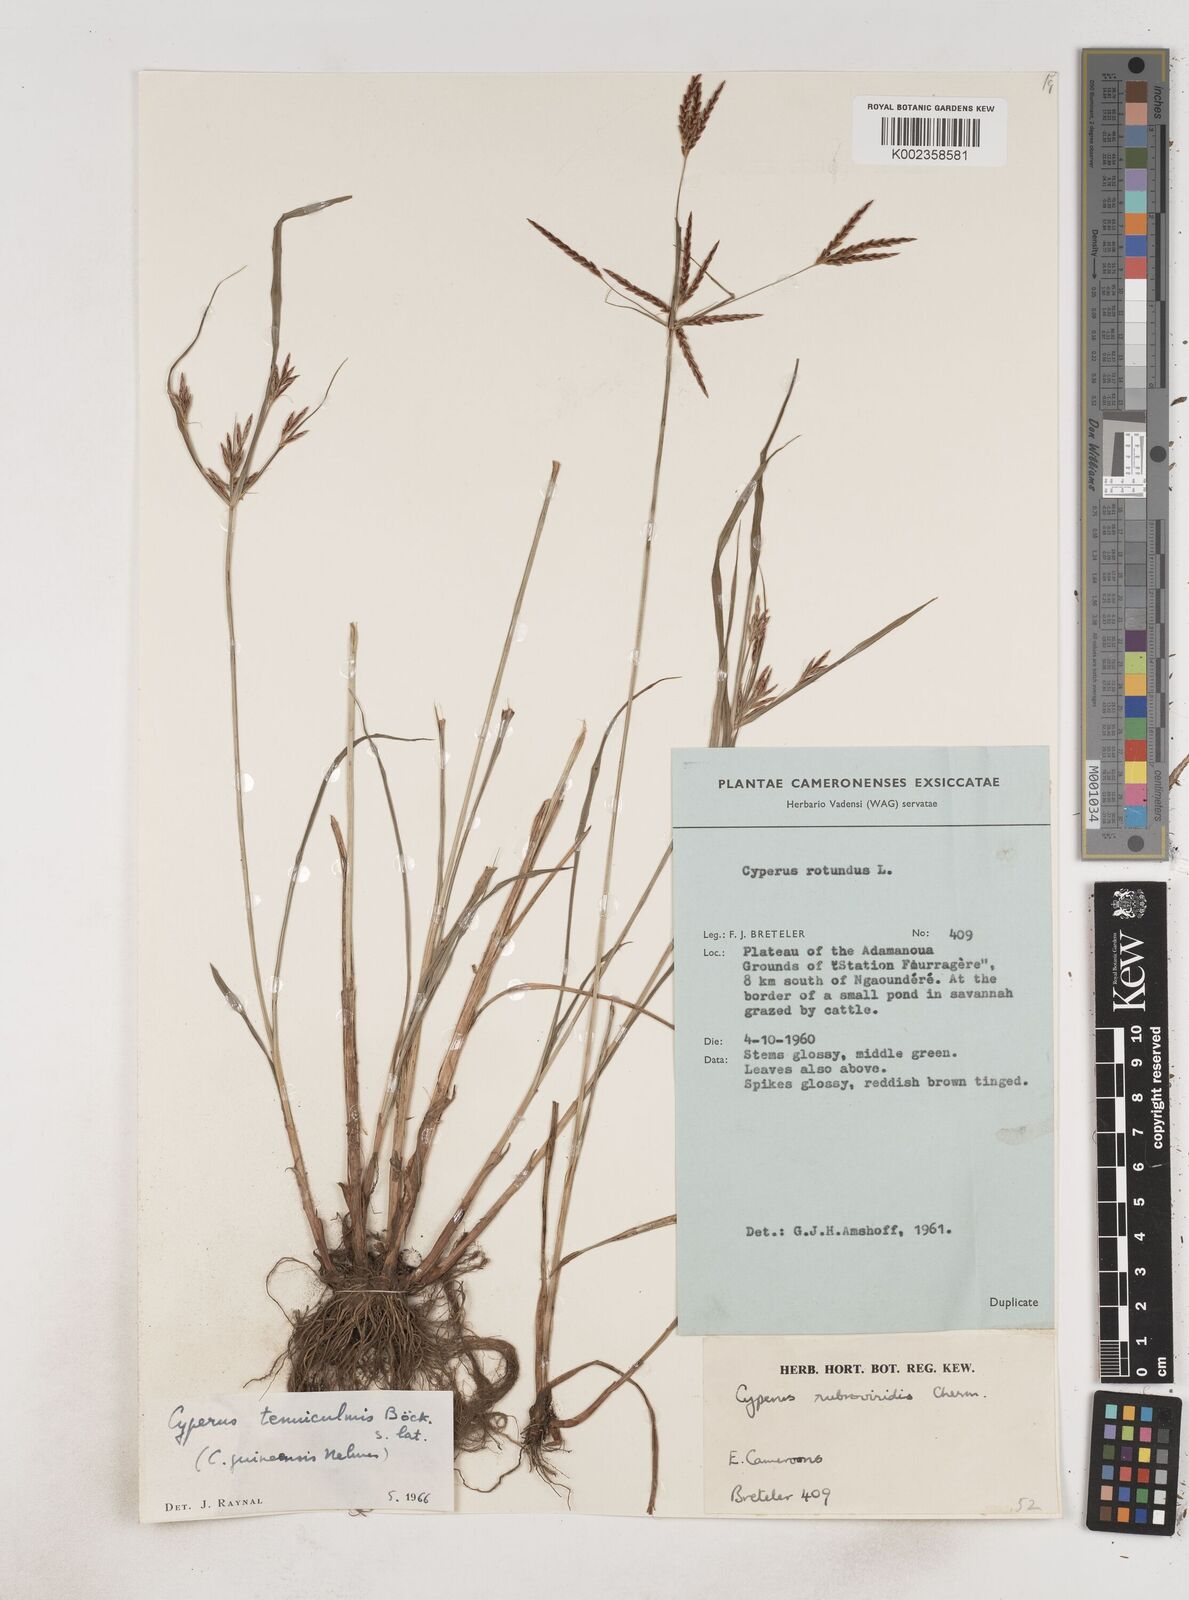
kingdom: Plantae
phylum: Tracheophyta
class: Liliopsida
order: Poales
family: Cyperaceae
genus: Cyperus
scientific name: Cyperus tenuiculmis
